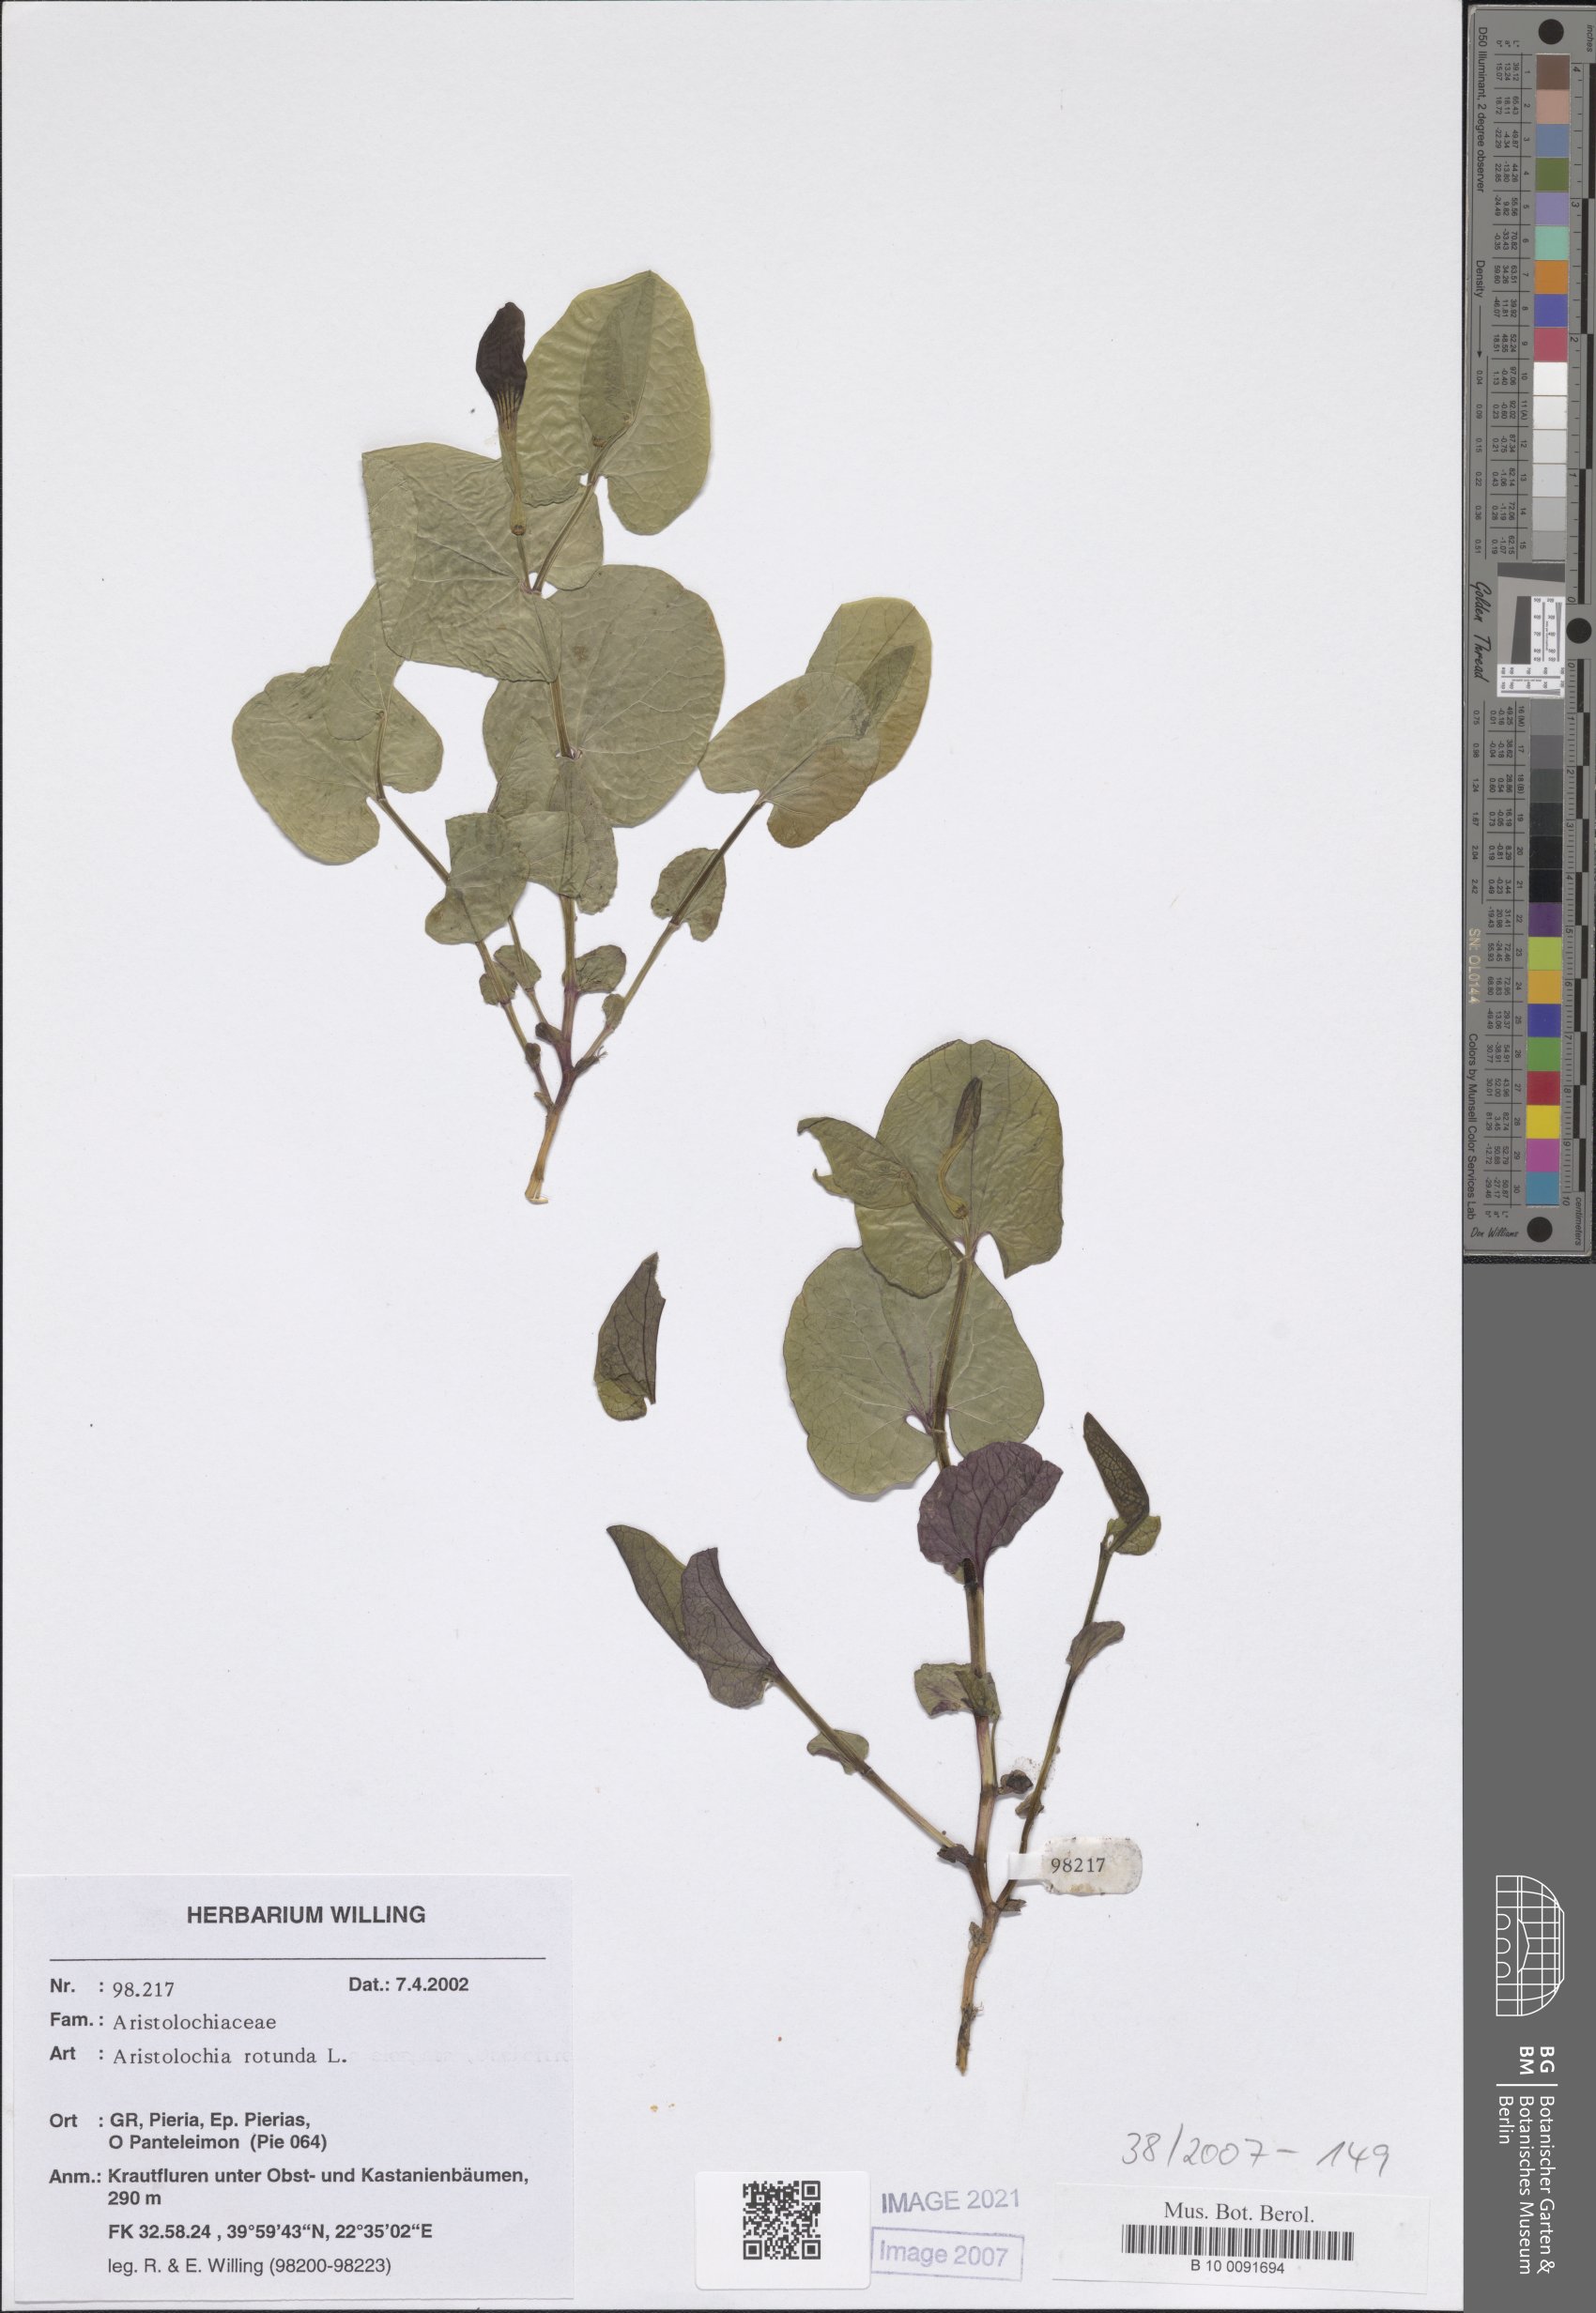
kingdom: Plantae
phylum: Tracheophyta
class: Magnoliopsida
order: Piperales
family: Aristolochiaceae
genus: Aristolochia
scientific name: Aristolochia rotunda
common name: Smearwort
